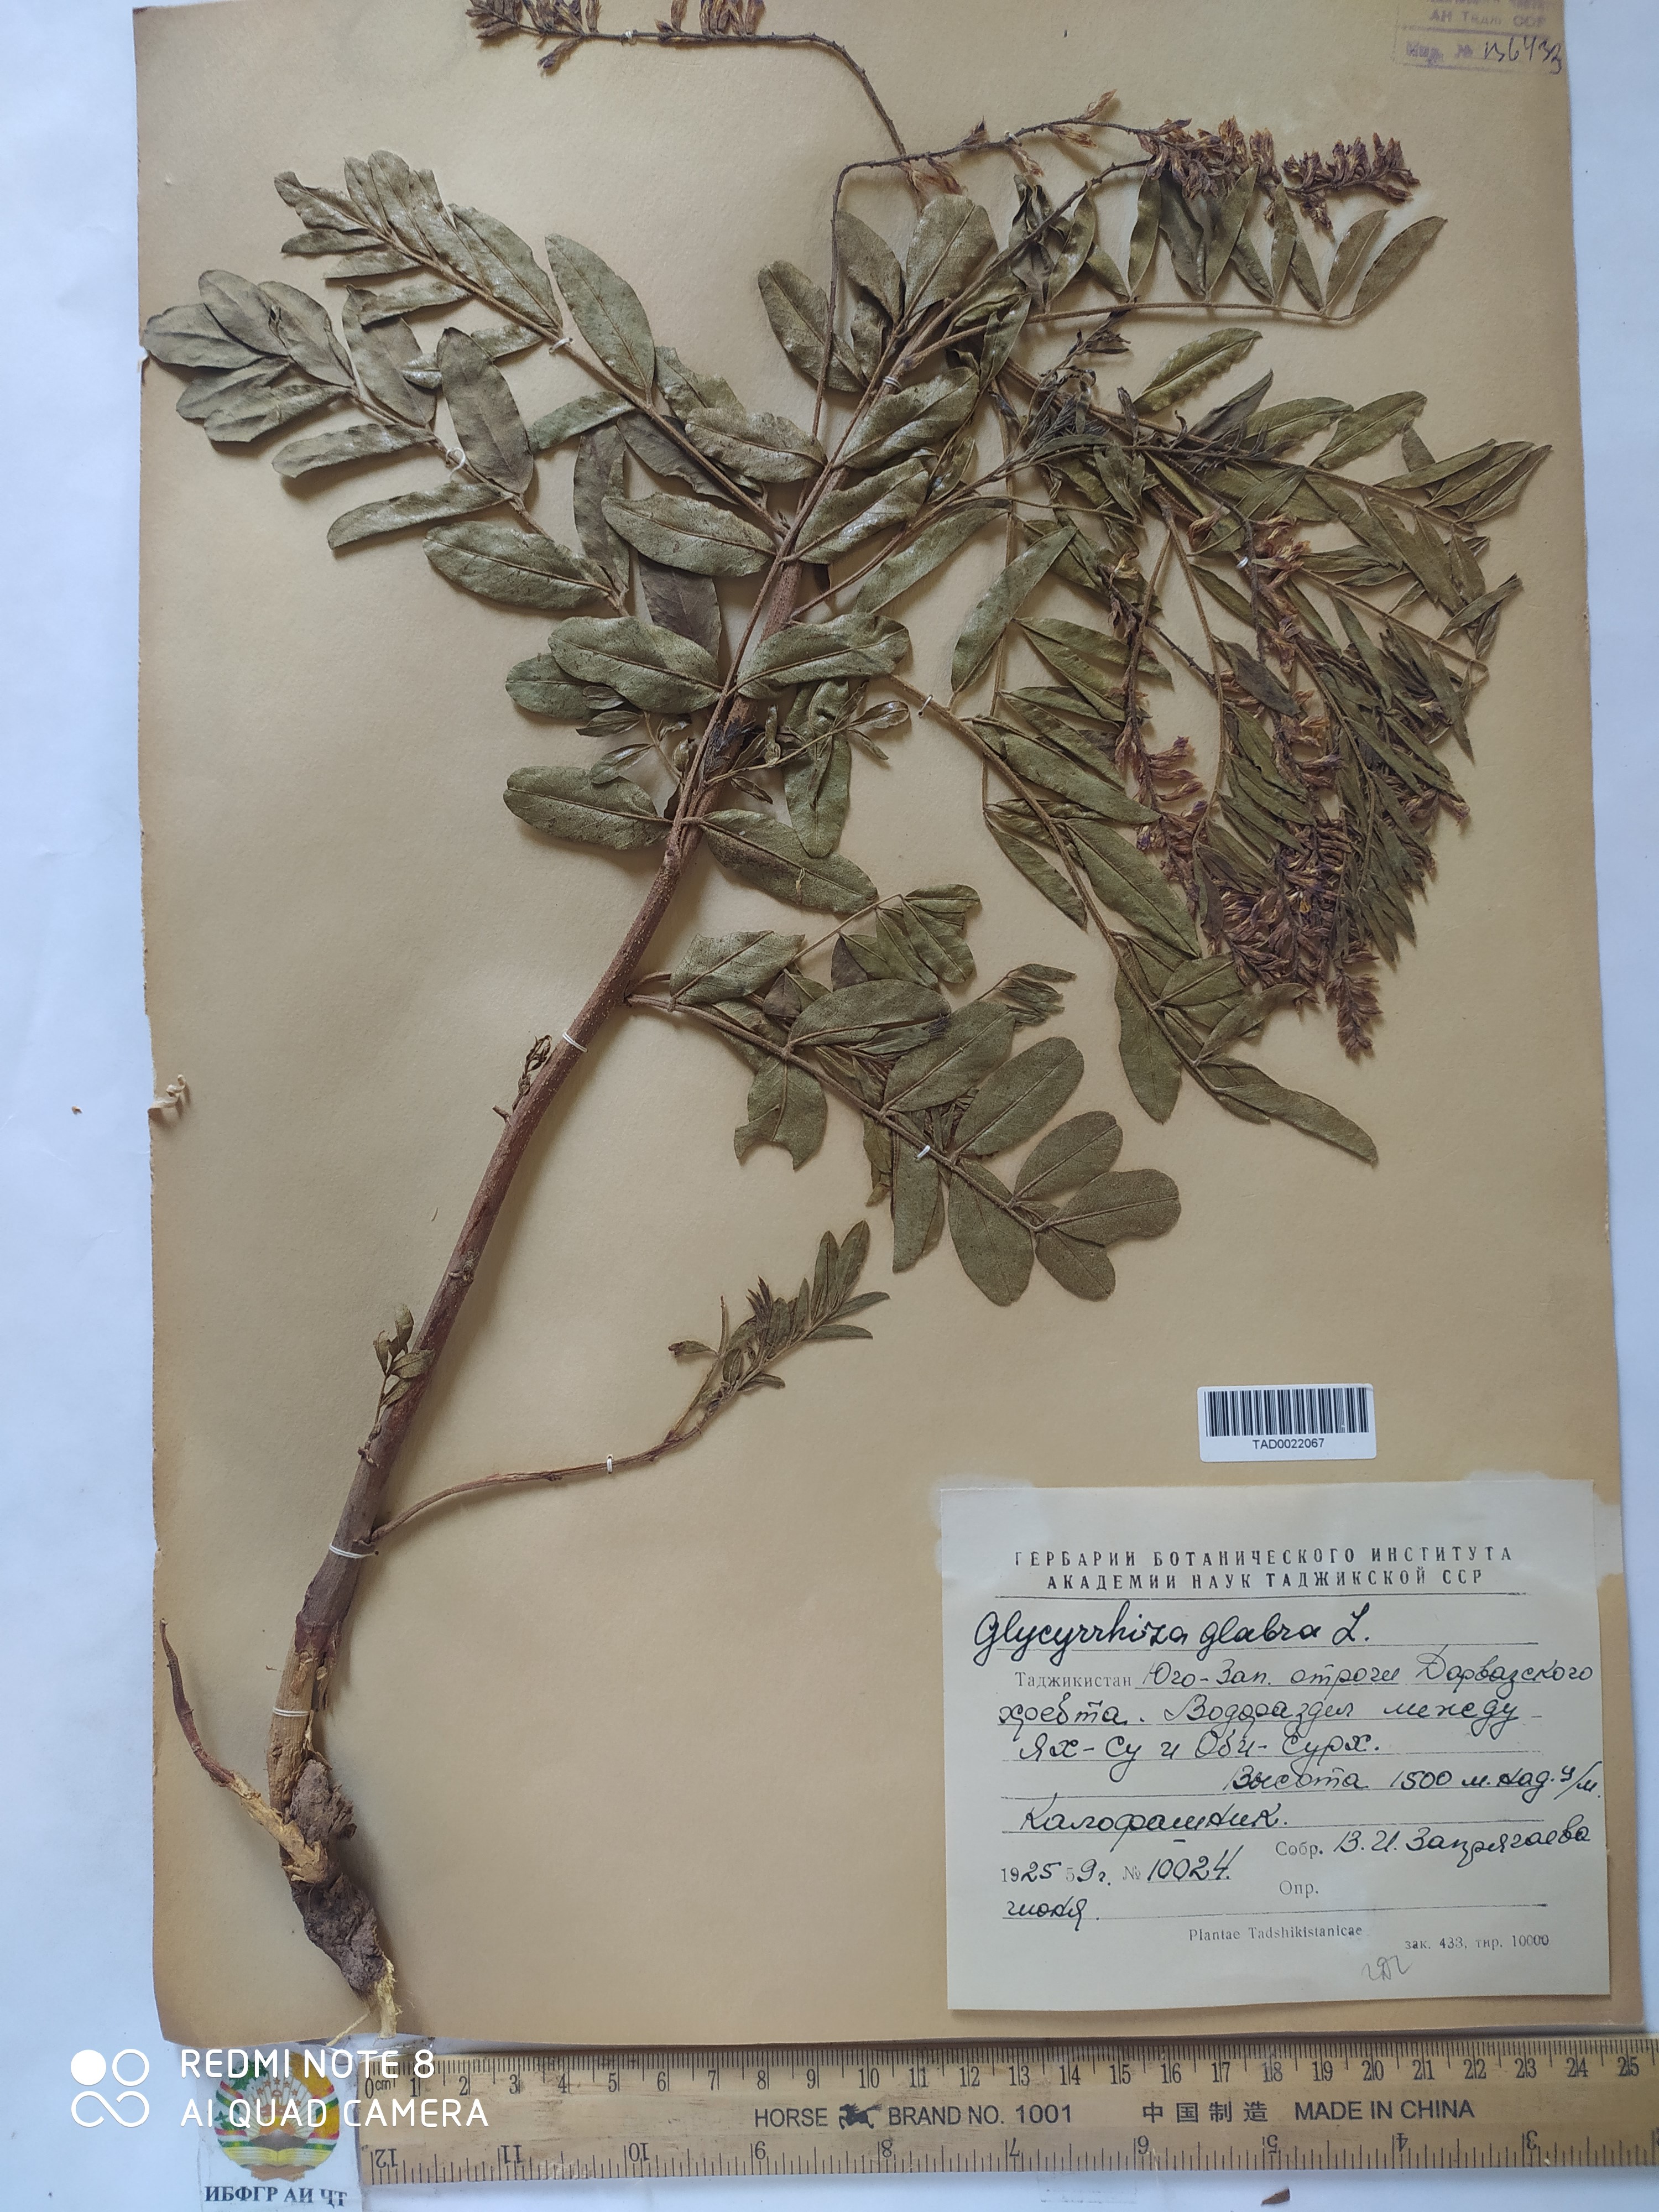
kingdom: Plantae
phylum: Tracheophyta
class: Magnoliopsida
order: Fabales
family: Fabaceae
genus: Glycyrrhiza
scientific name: Glycyrrhiza glabra
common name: Liquorice
